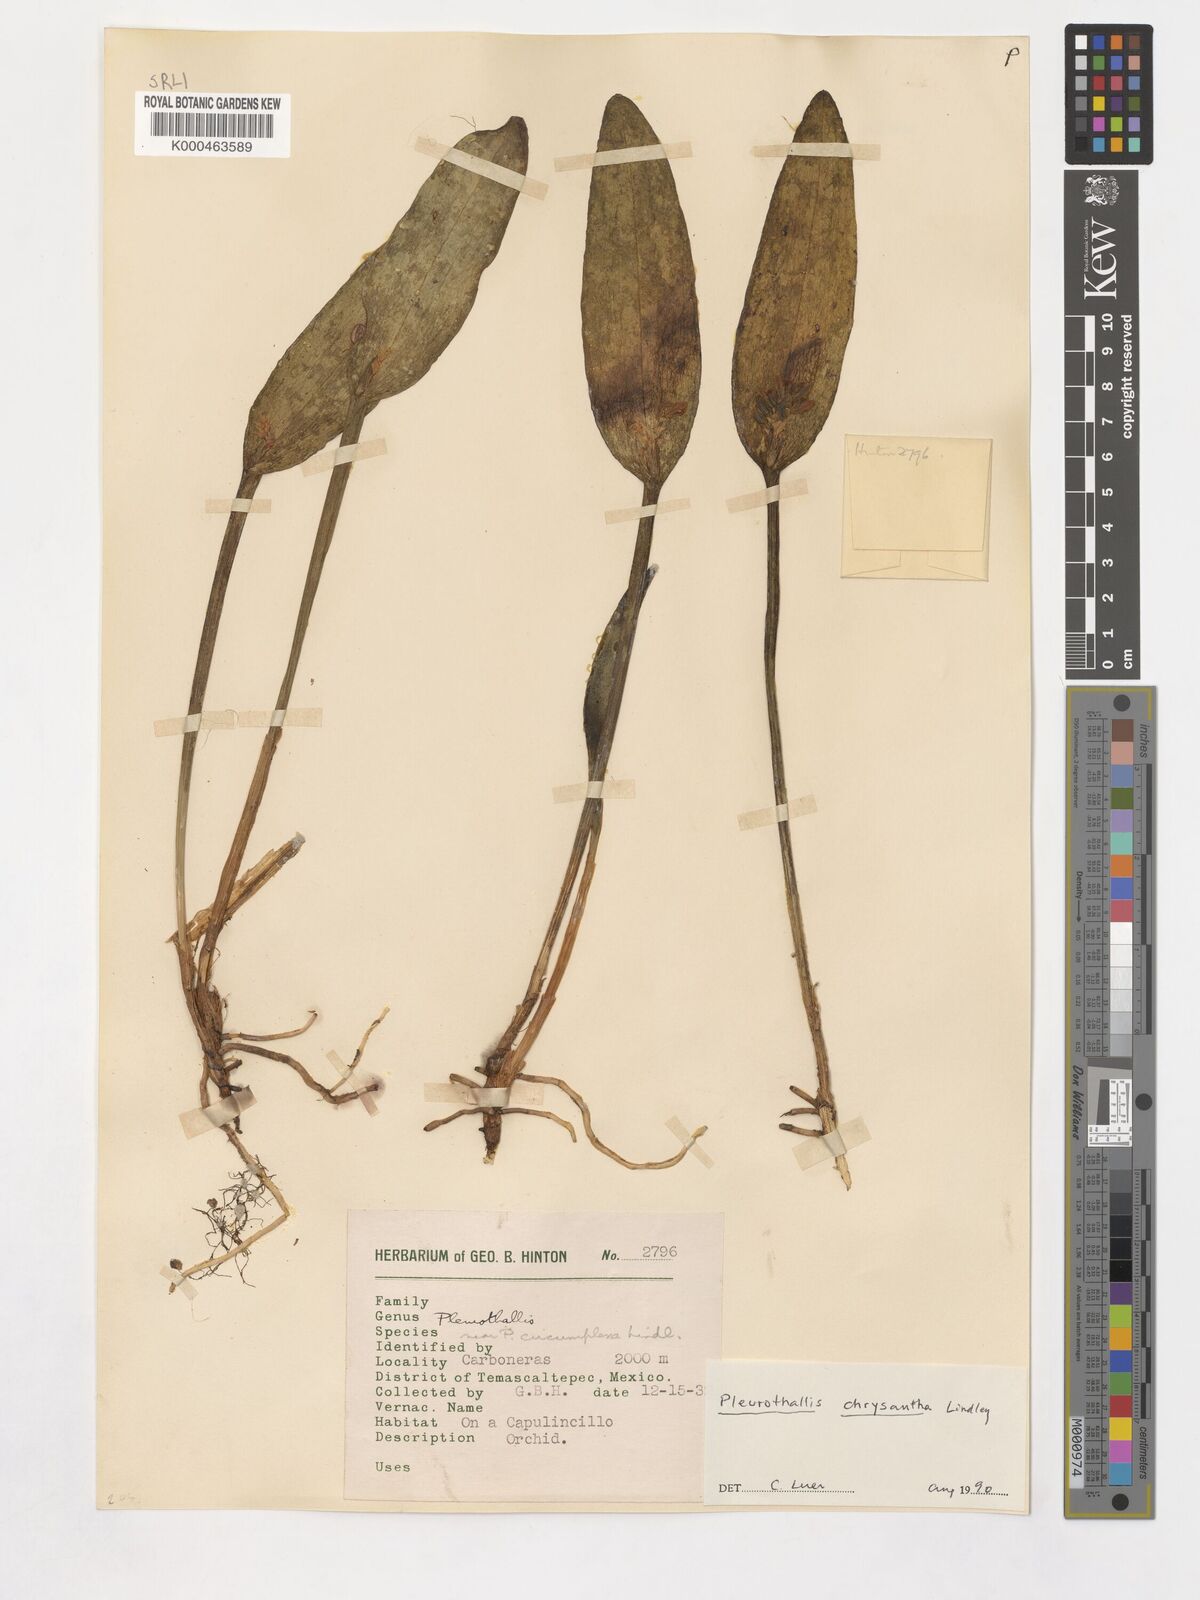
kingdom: Plantae
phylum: Tracheophyta
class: Liliopsida
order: Asparagales
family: Orchidaceae
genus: Acianthera
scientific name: Acianthera chrysantha
